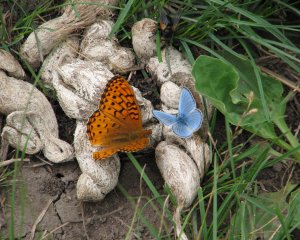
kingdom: Animalia
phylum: Arthropoda
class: Insecta
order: Lepidoptera
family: Lycaenidae
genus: Glaucopsyche
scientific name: Glaucopsyche lygdamus
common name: Silvery Blue
